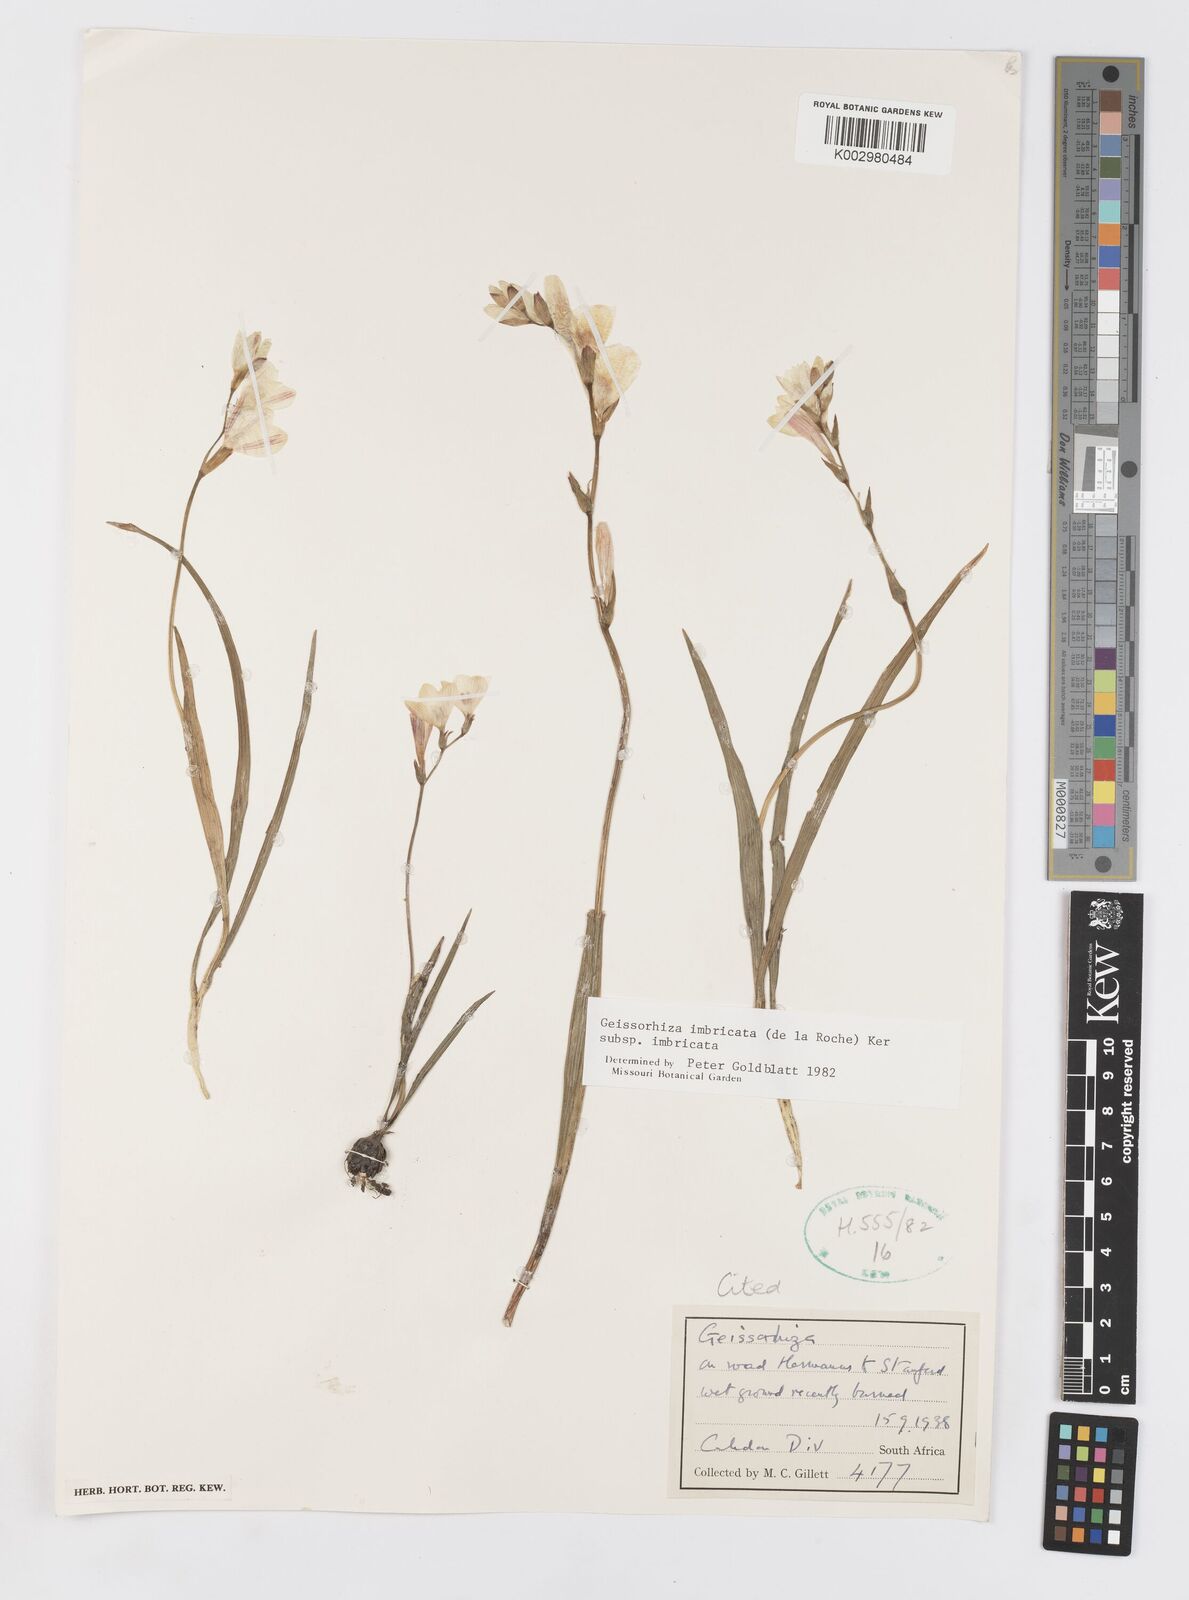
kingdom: Plantae
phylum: Tracheophyta
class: Liliopsida
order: Asparagales
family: Iridaceae
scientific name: Iridaceae
